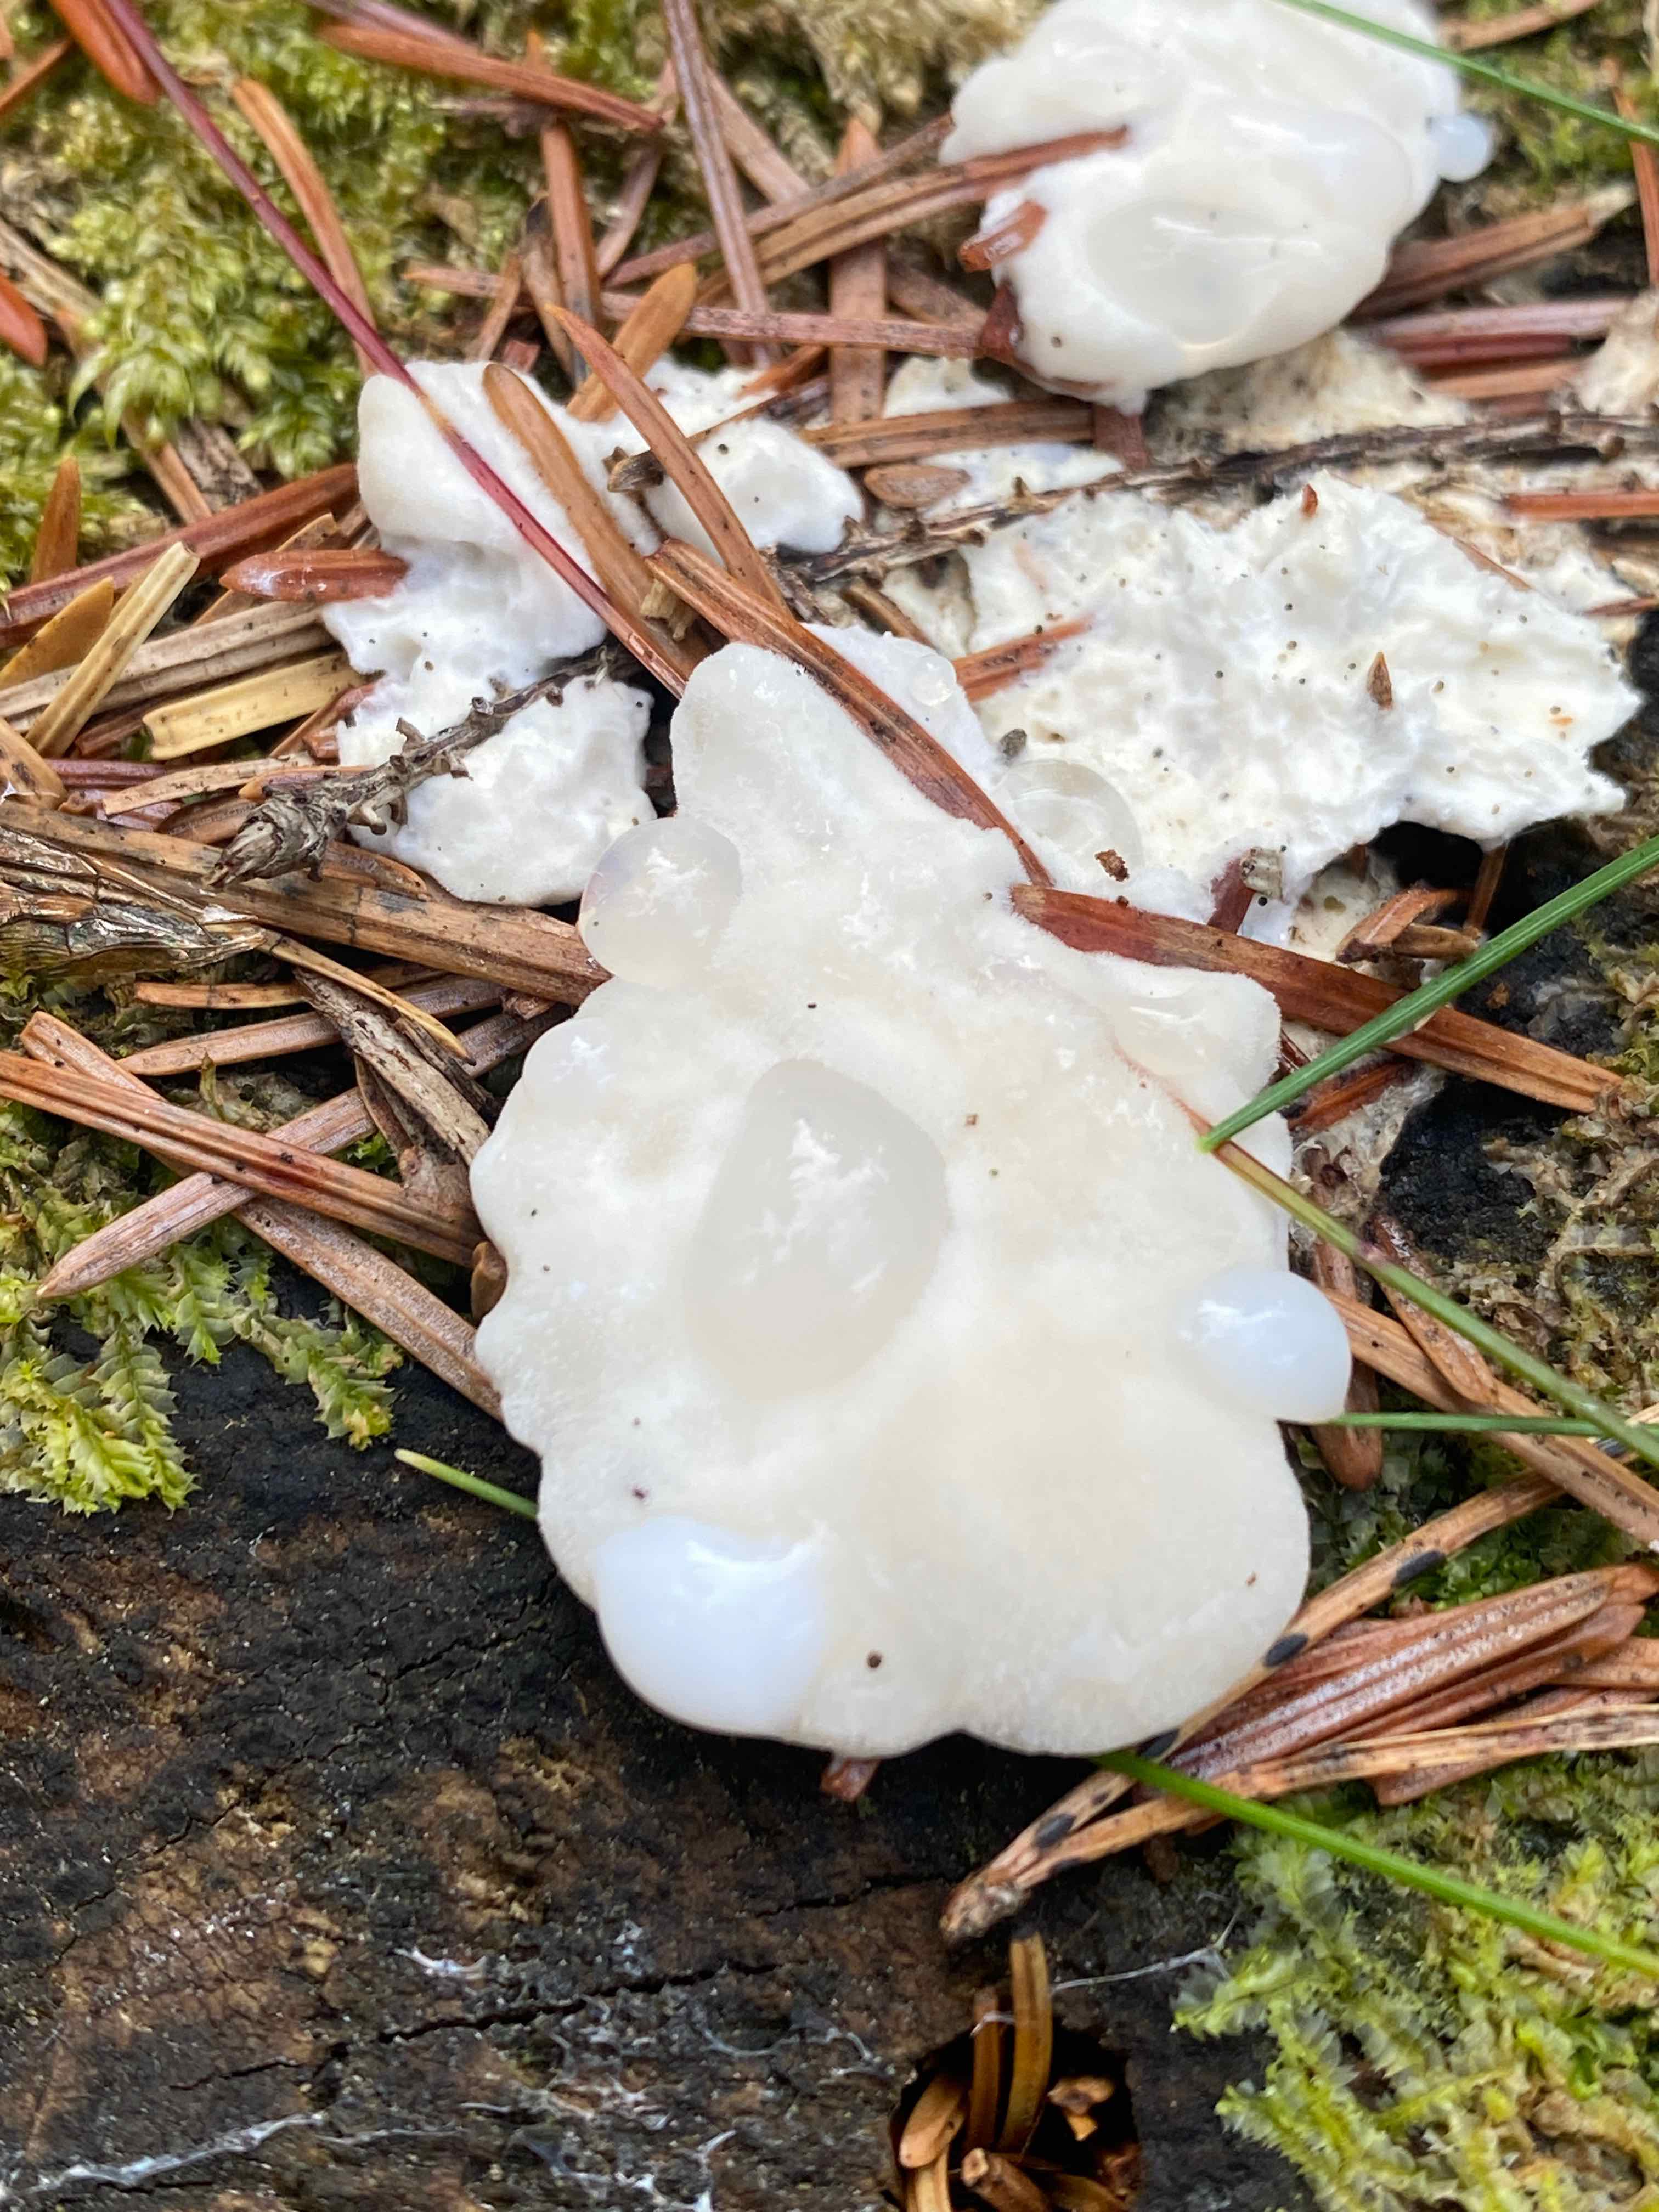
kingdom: Fungi
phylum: Basidiomycota
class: Agaricomycetes
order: Polyporales
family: Fomitopsidaceae
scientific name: Fomitopsidaceae
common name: hovporesvampfamilien
